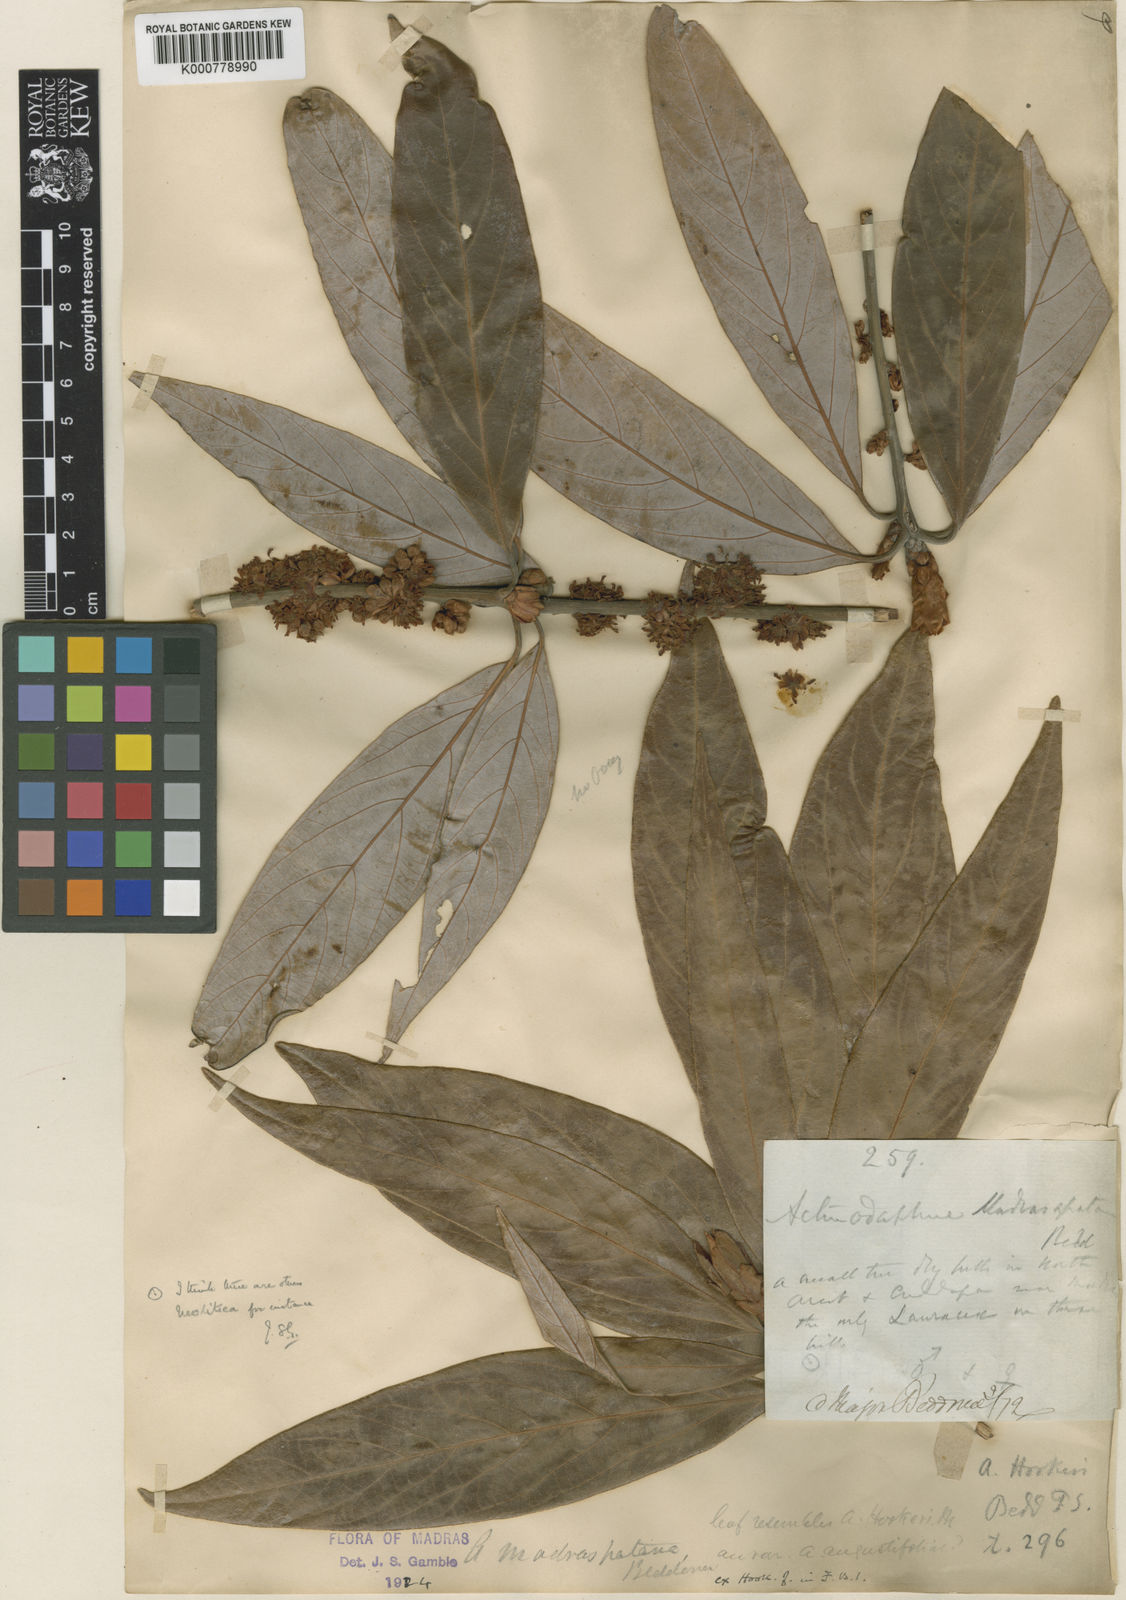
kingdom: Plantae
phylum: Tracheophyta
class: Magnoliopsida
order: Laurales
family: Lauraceae
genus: Actinodaphne
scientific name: Actinodaphne madraspatana
